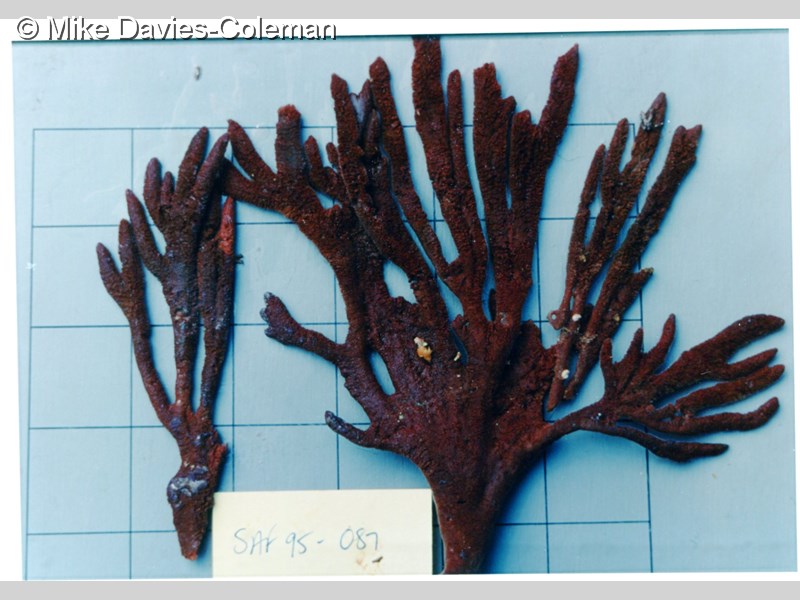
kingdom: Animalia
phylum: Porifera
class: Demospongiae
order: Axinellida
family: Axinellidae
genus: Axinella
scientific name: Axinella
